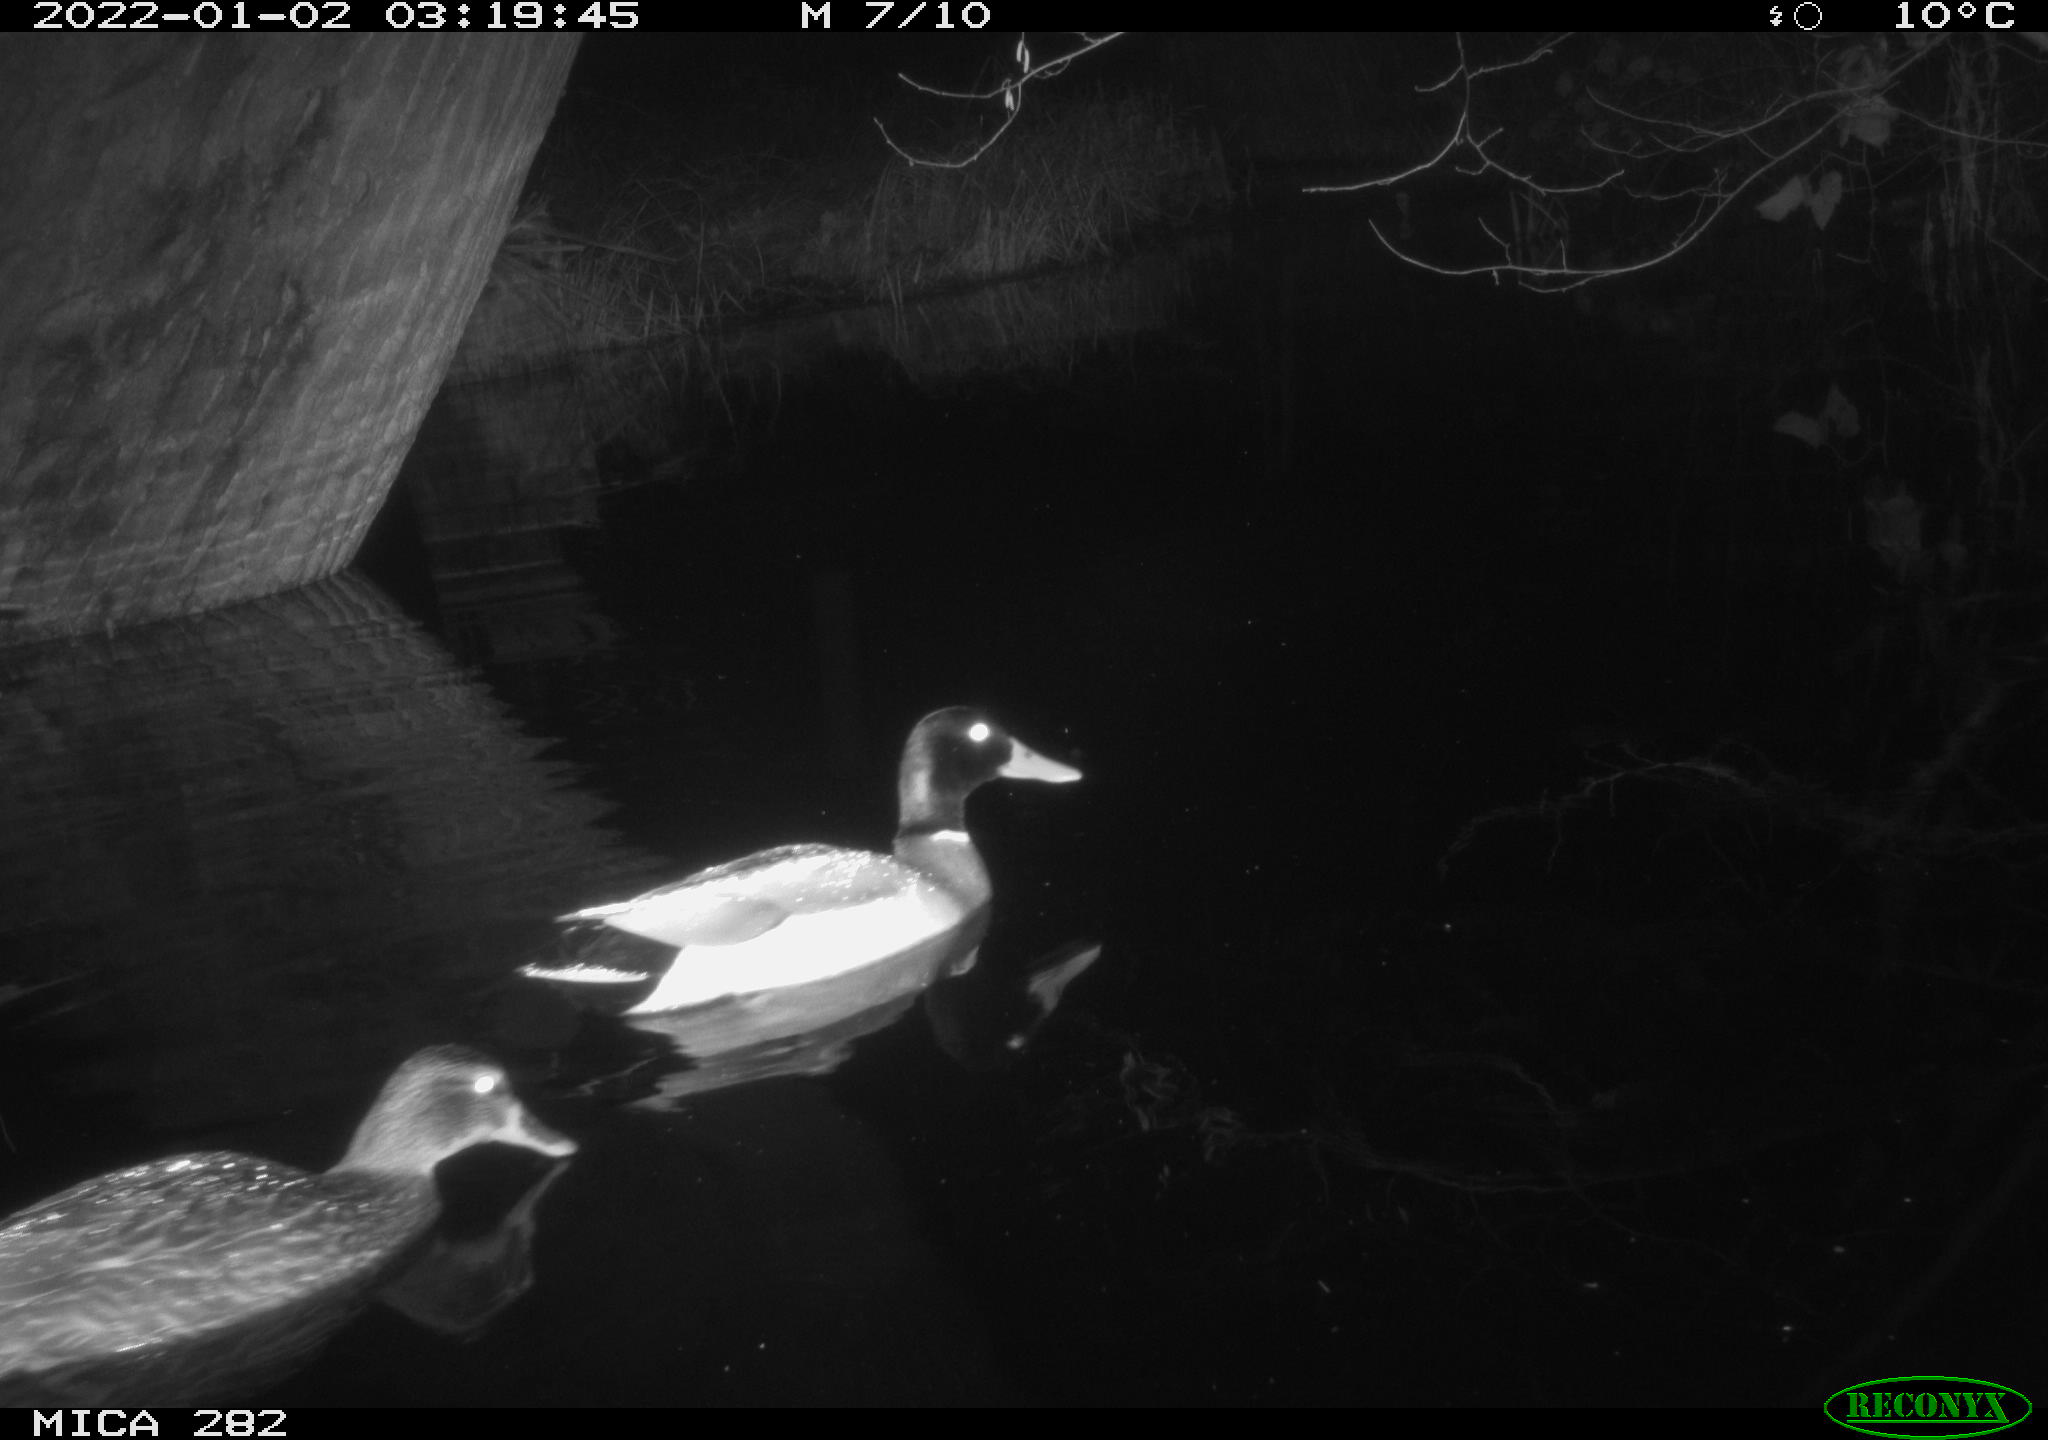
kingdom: Animalia
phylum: Chordata
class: Aves
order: Anseriformes
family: Anatidae
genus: Anas
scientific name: Anas platyrhynchos
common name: Mallard
